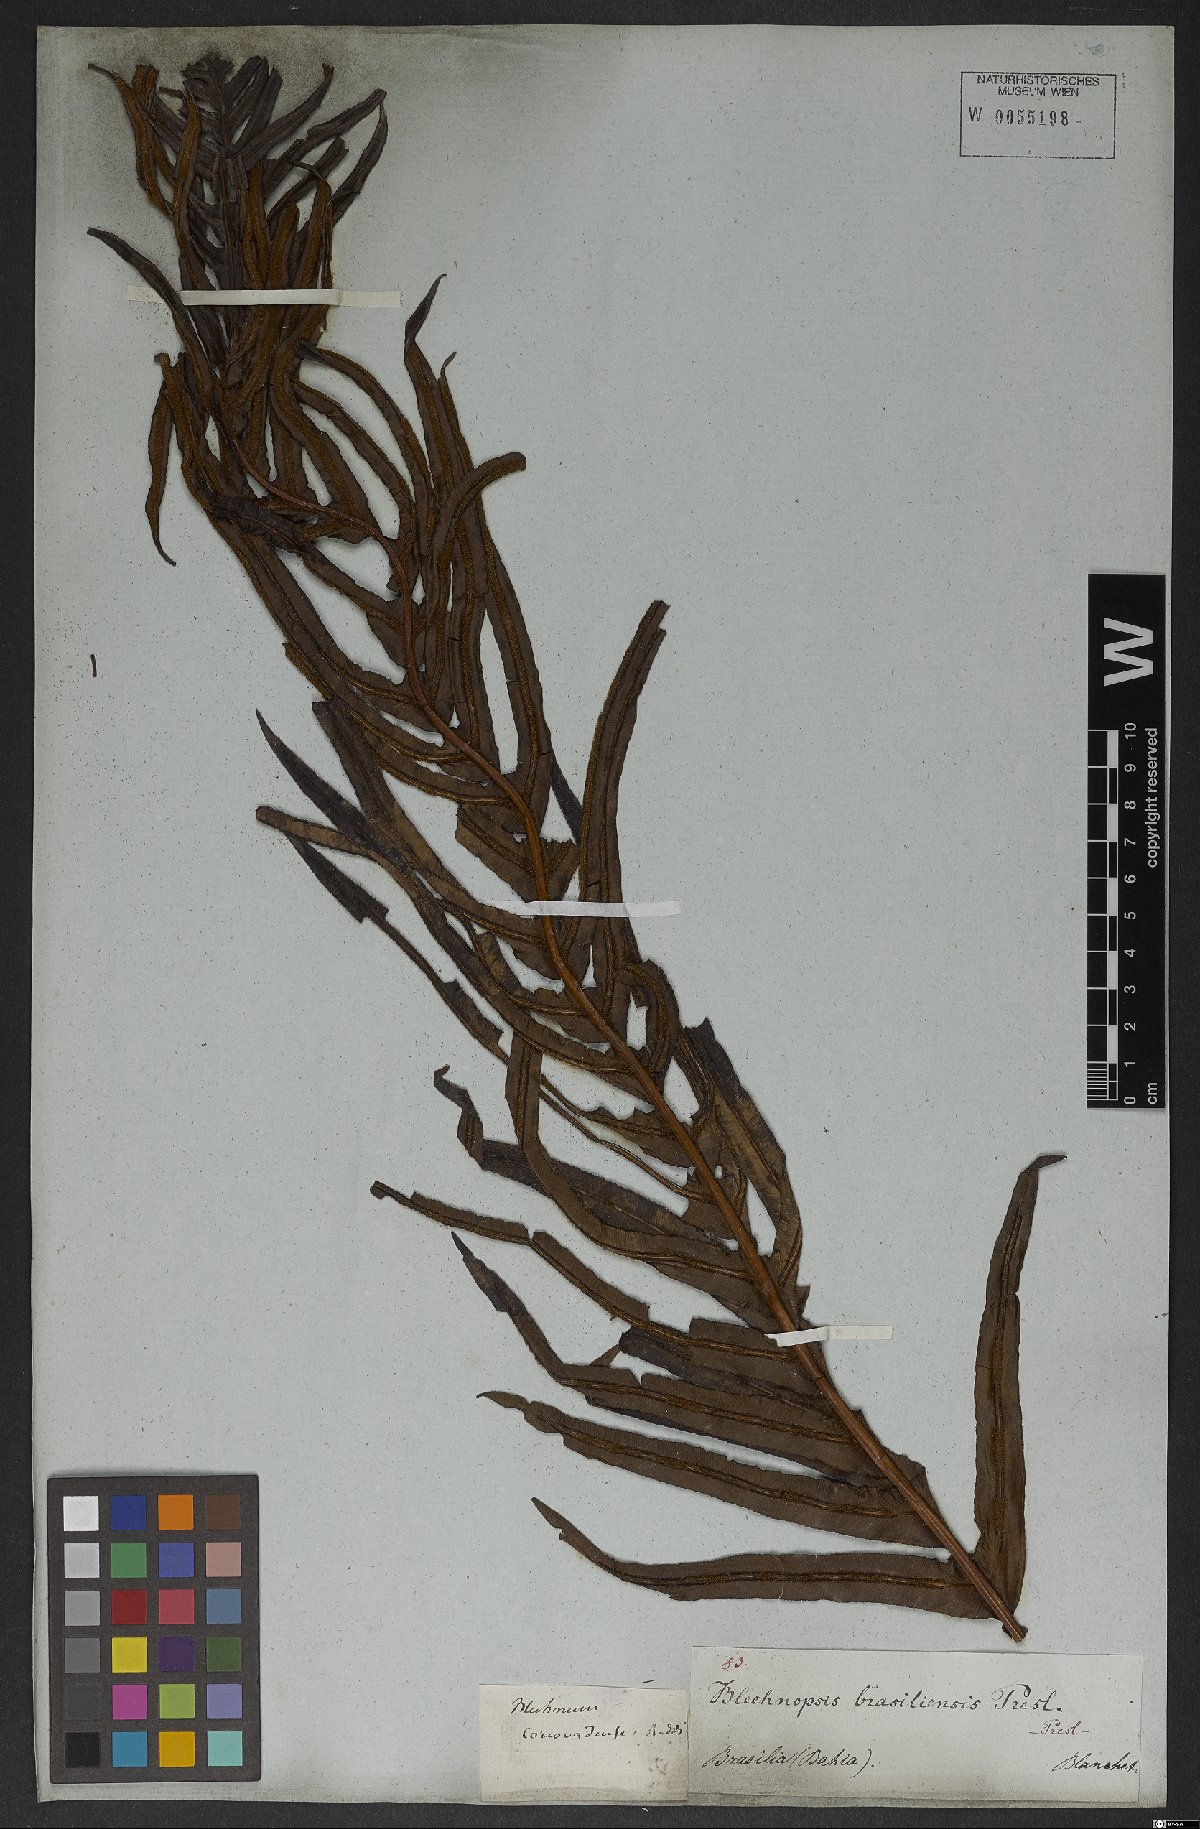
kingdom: Plantae
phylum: Tracheophyta
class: Polypodiopsida
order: Polypodiales
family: Blechnaceae
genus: Neoblechnum
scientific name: Neoblechnum brasiliense
